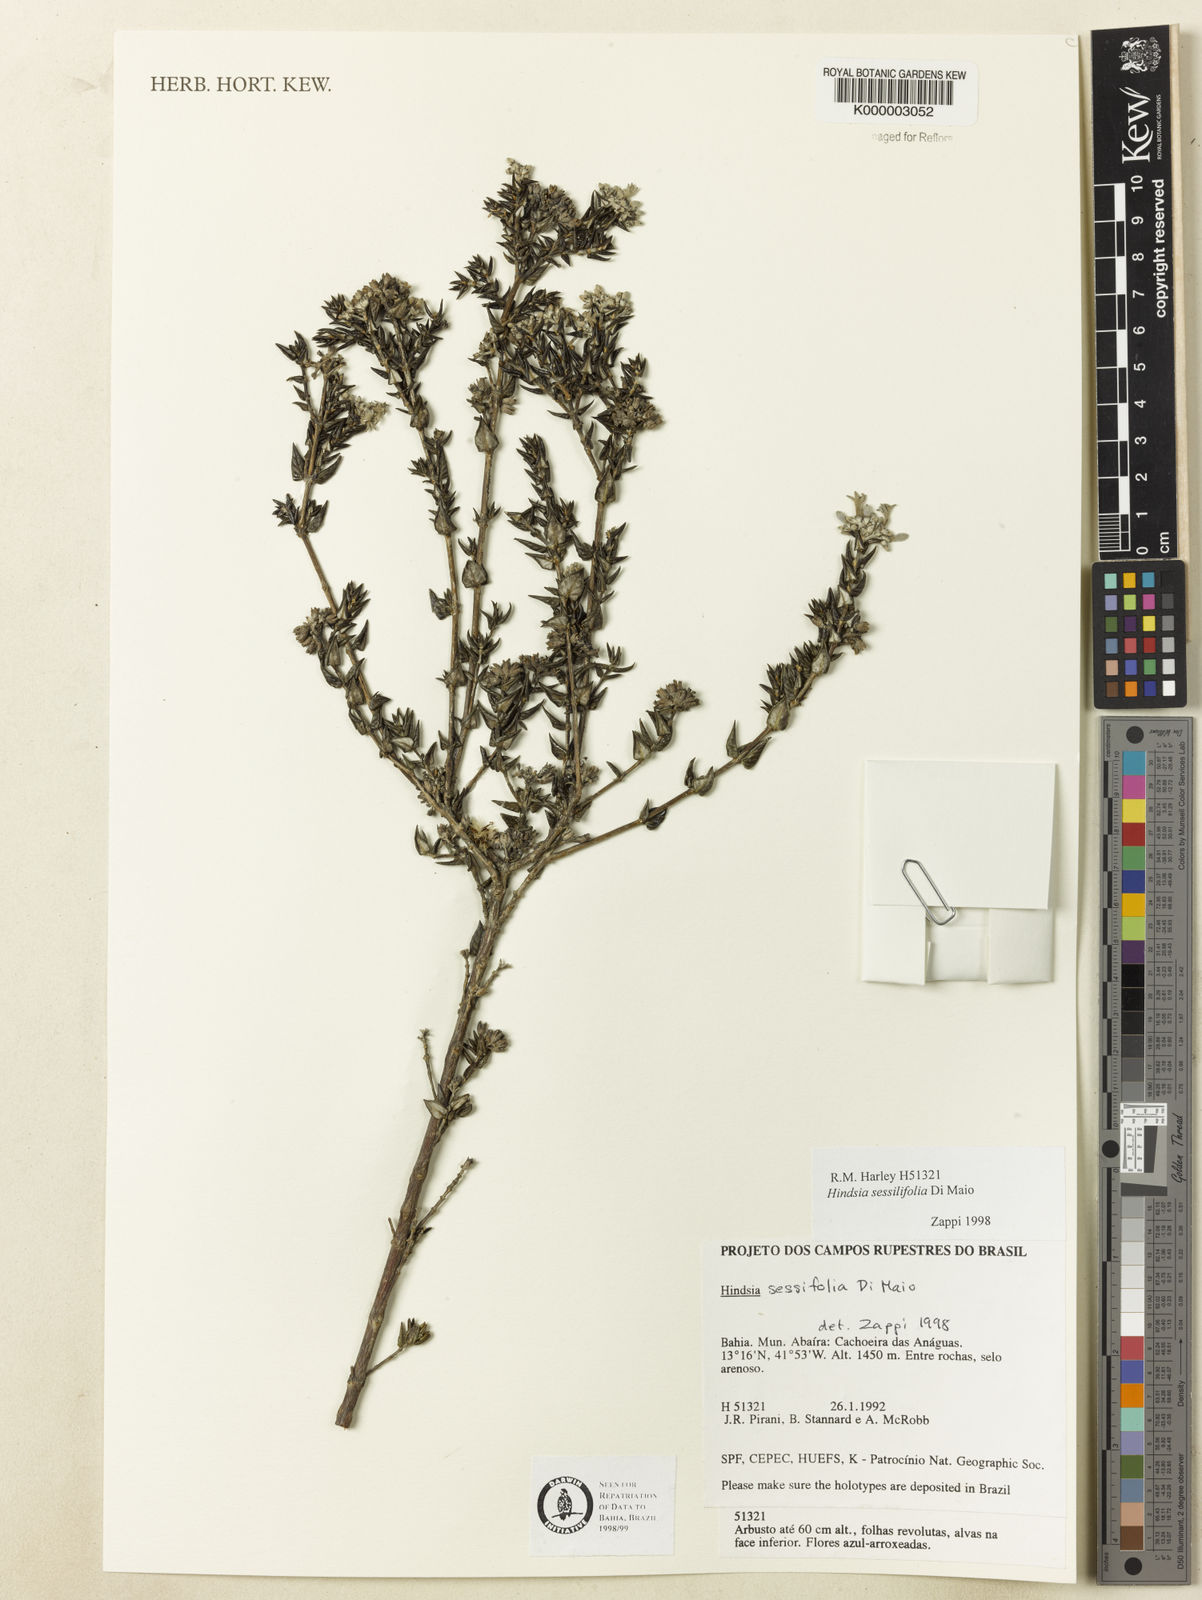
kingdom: Plantae
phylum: Tracheophyta
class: Magnoliopsida
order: Gentianales
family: Rubiaceae
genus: Hindsia
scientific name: Hindsia sessilifolia
